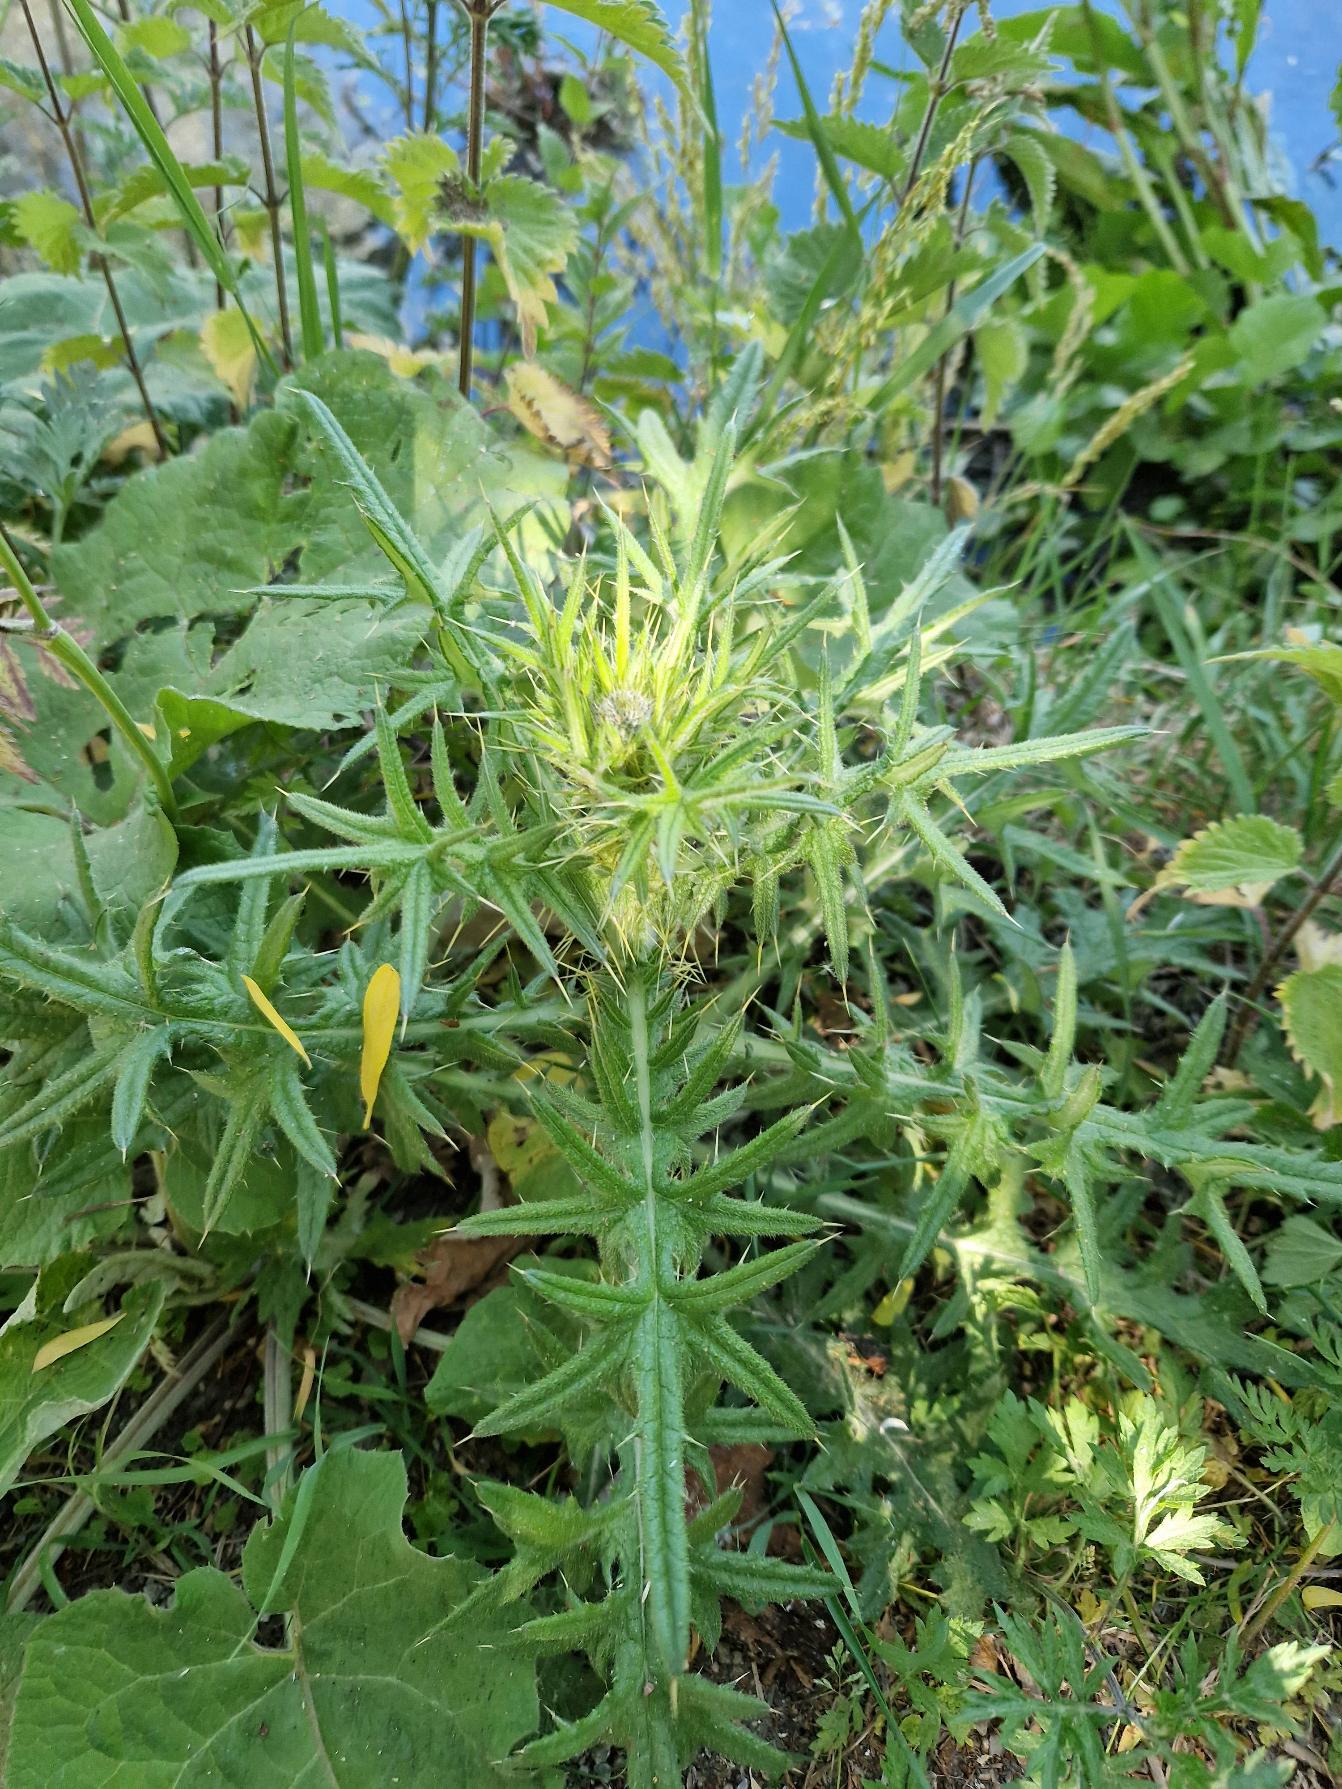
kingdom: Plantae
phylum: Tracheophyta
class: Magnoliopsida
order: Asterales
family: Asteraceae
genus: Cirsium
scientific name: Cirsium vulgare
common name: Horse-tidsel
